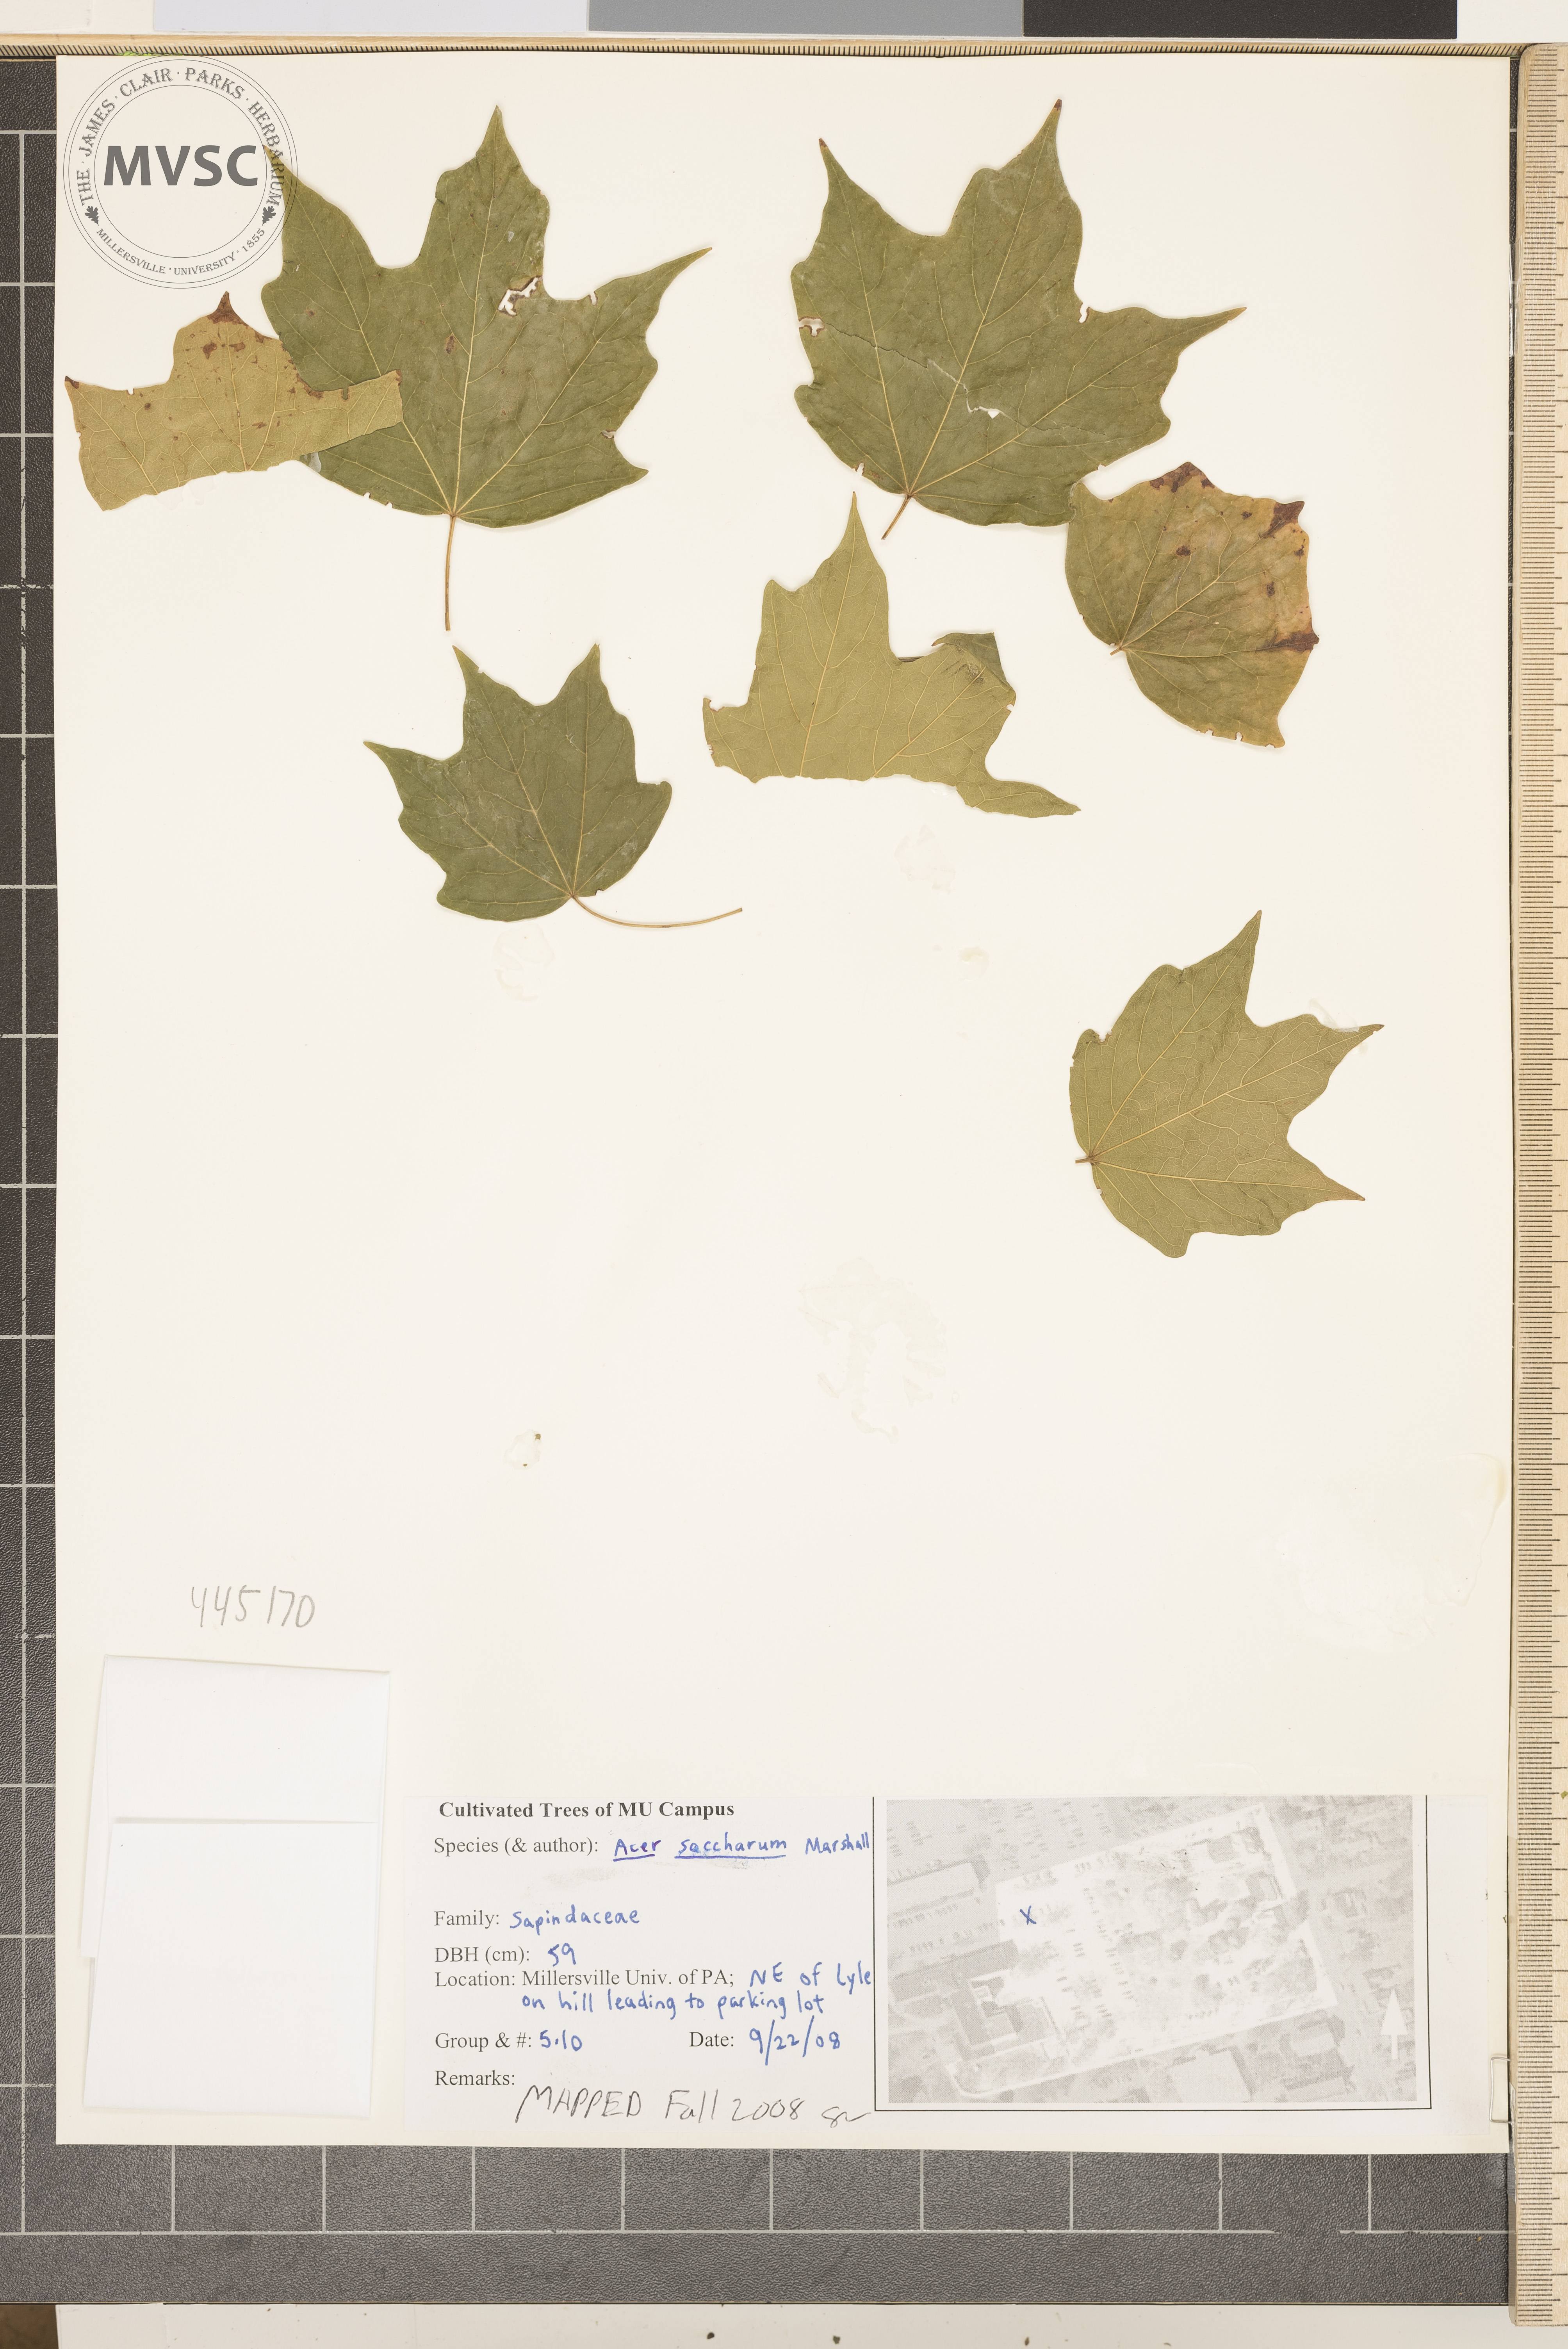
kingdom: Plantae
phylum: Tracheophyta
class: Magnoliopsida
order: Sapindales
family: Sapindaceae
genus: Acer
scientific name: Acer saccharum
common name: Sugar maple
